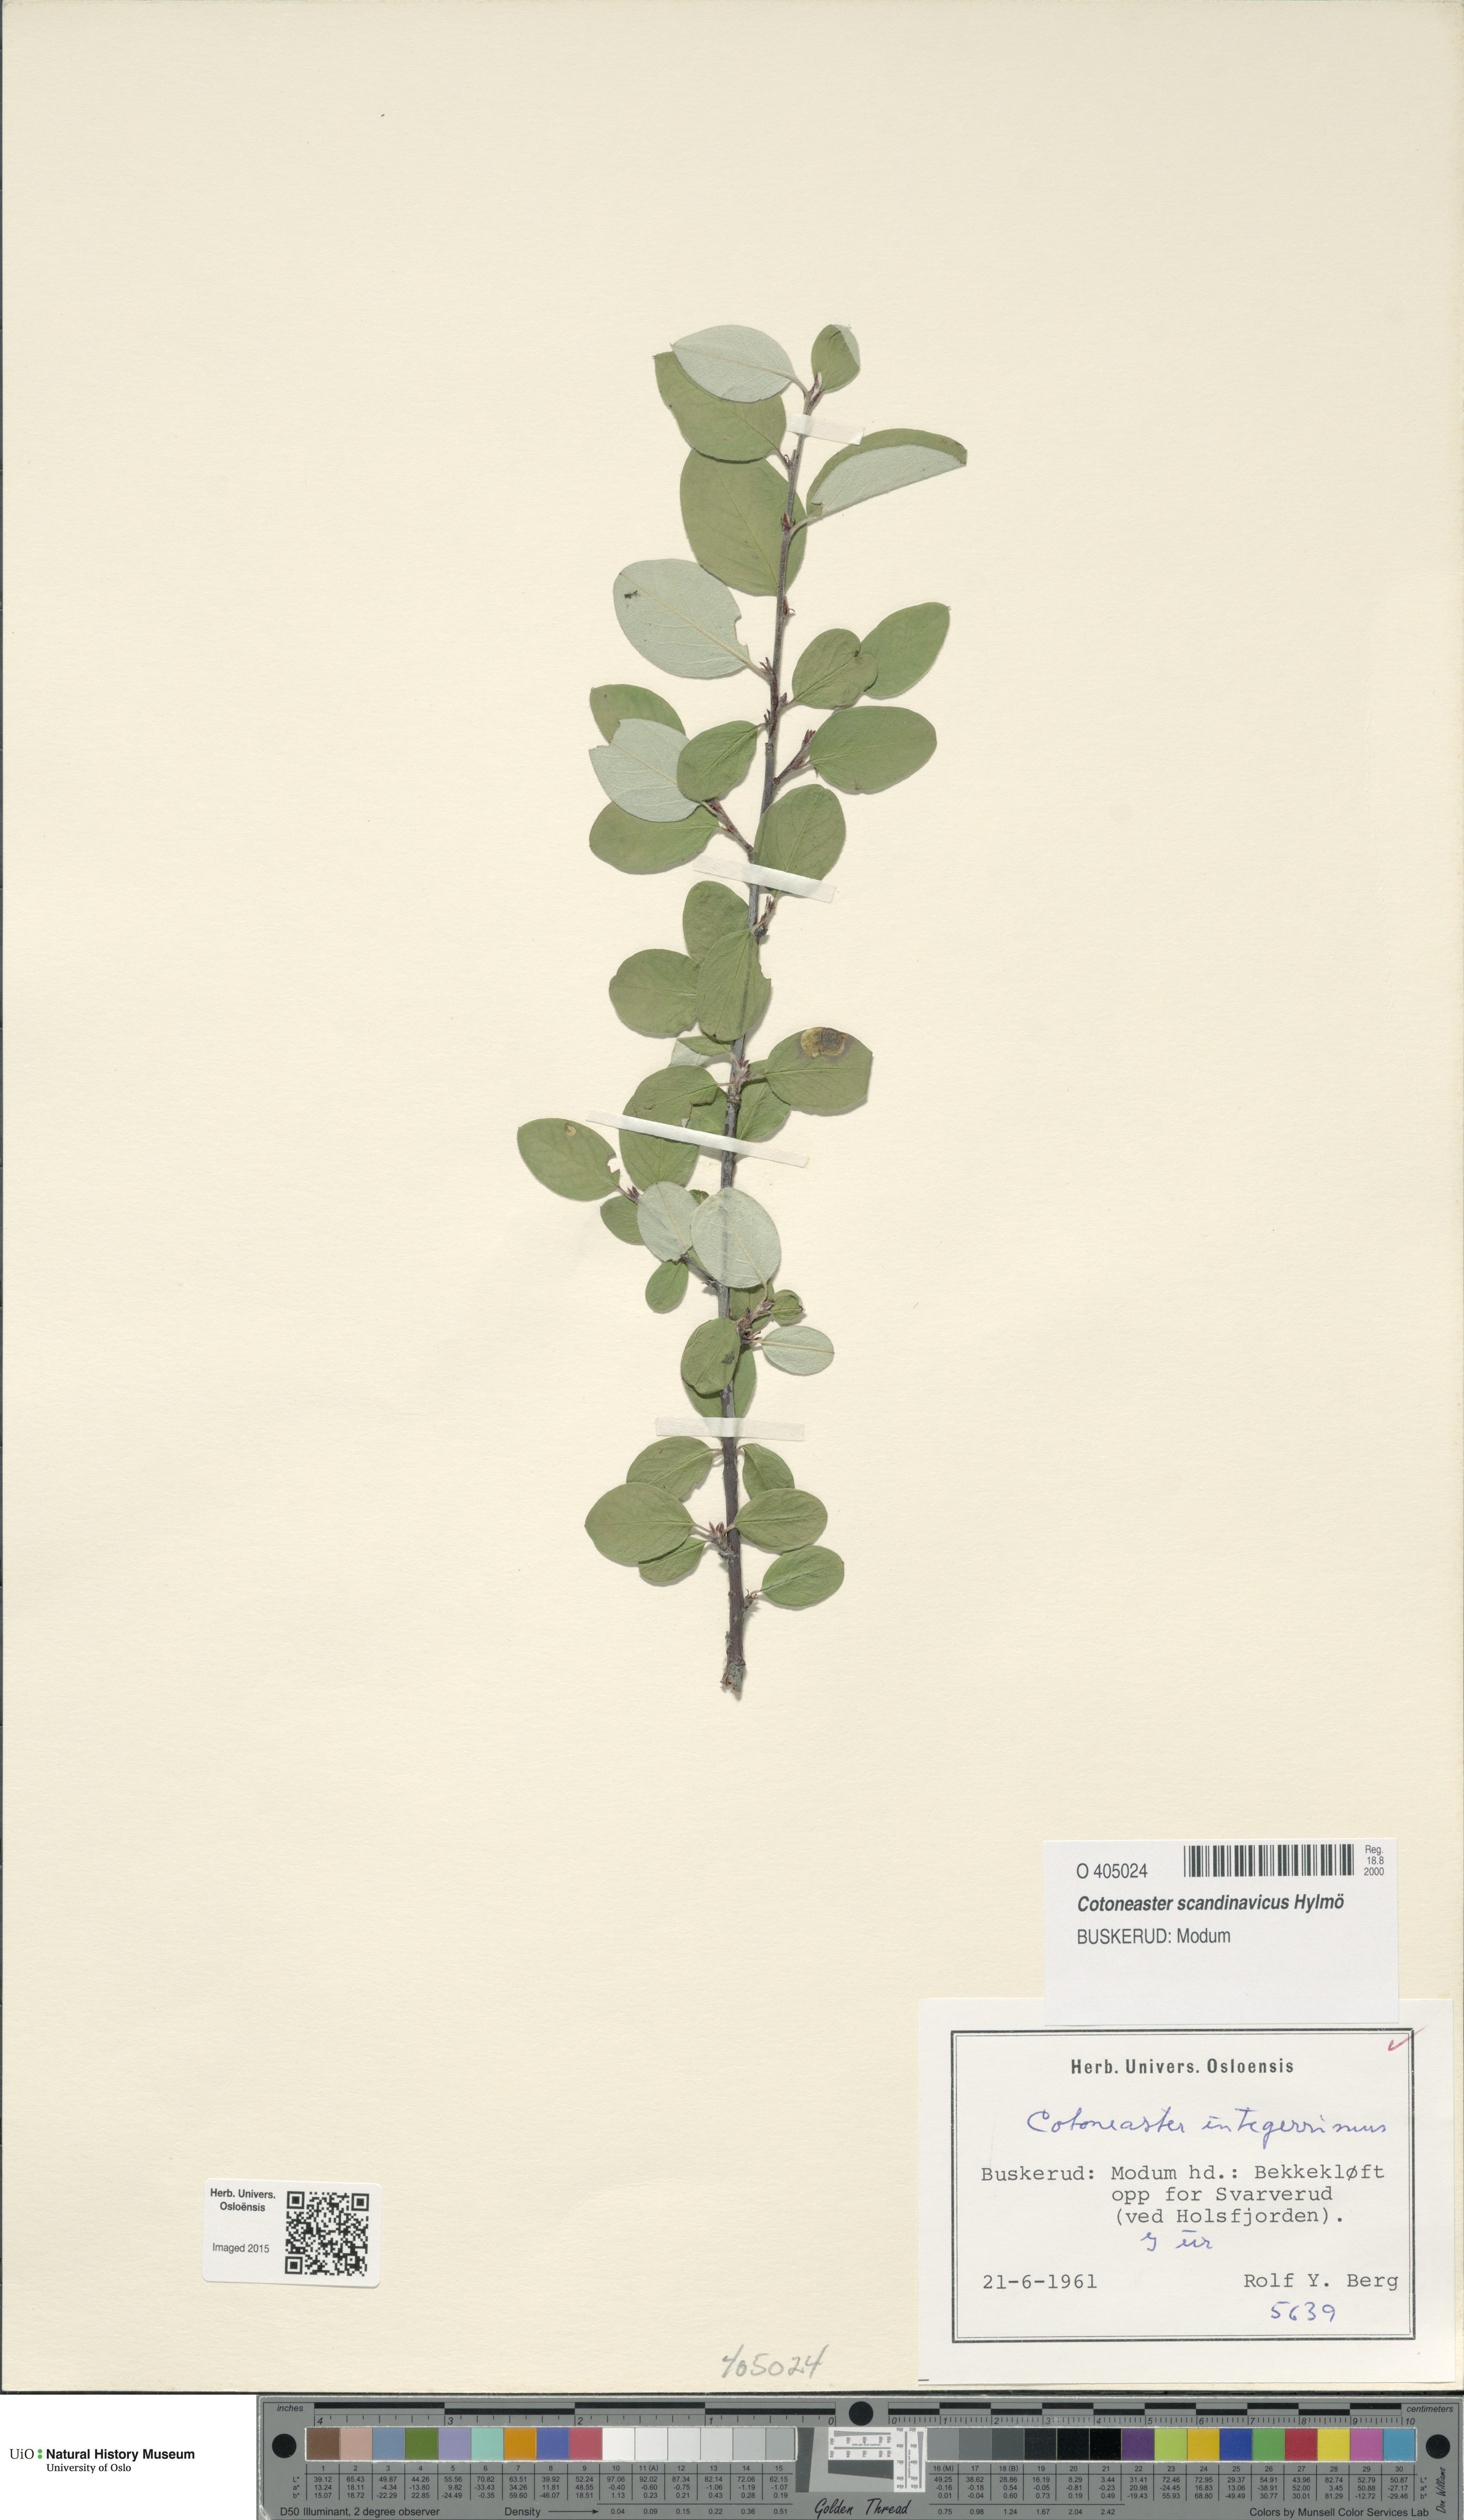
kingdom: Plantae
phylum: Tracheophyta
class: Magnoliopsida
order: Rosales
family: Rosaceae
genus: Cotoneaster
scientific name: Cotoneaster integerrimus
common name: Wild cotoneaster
